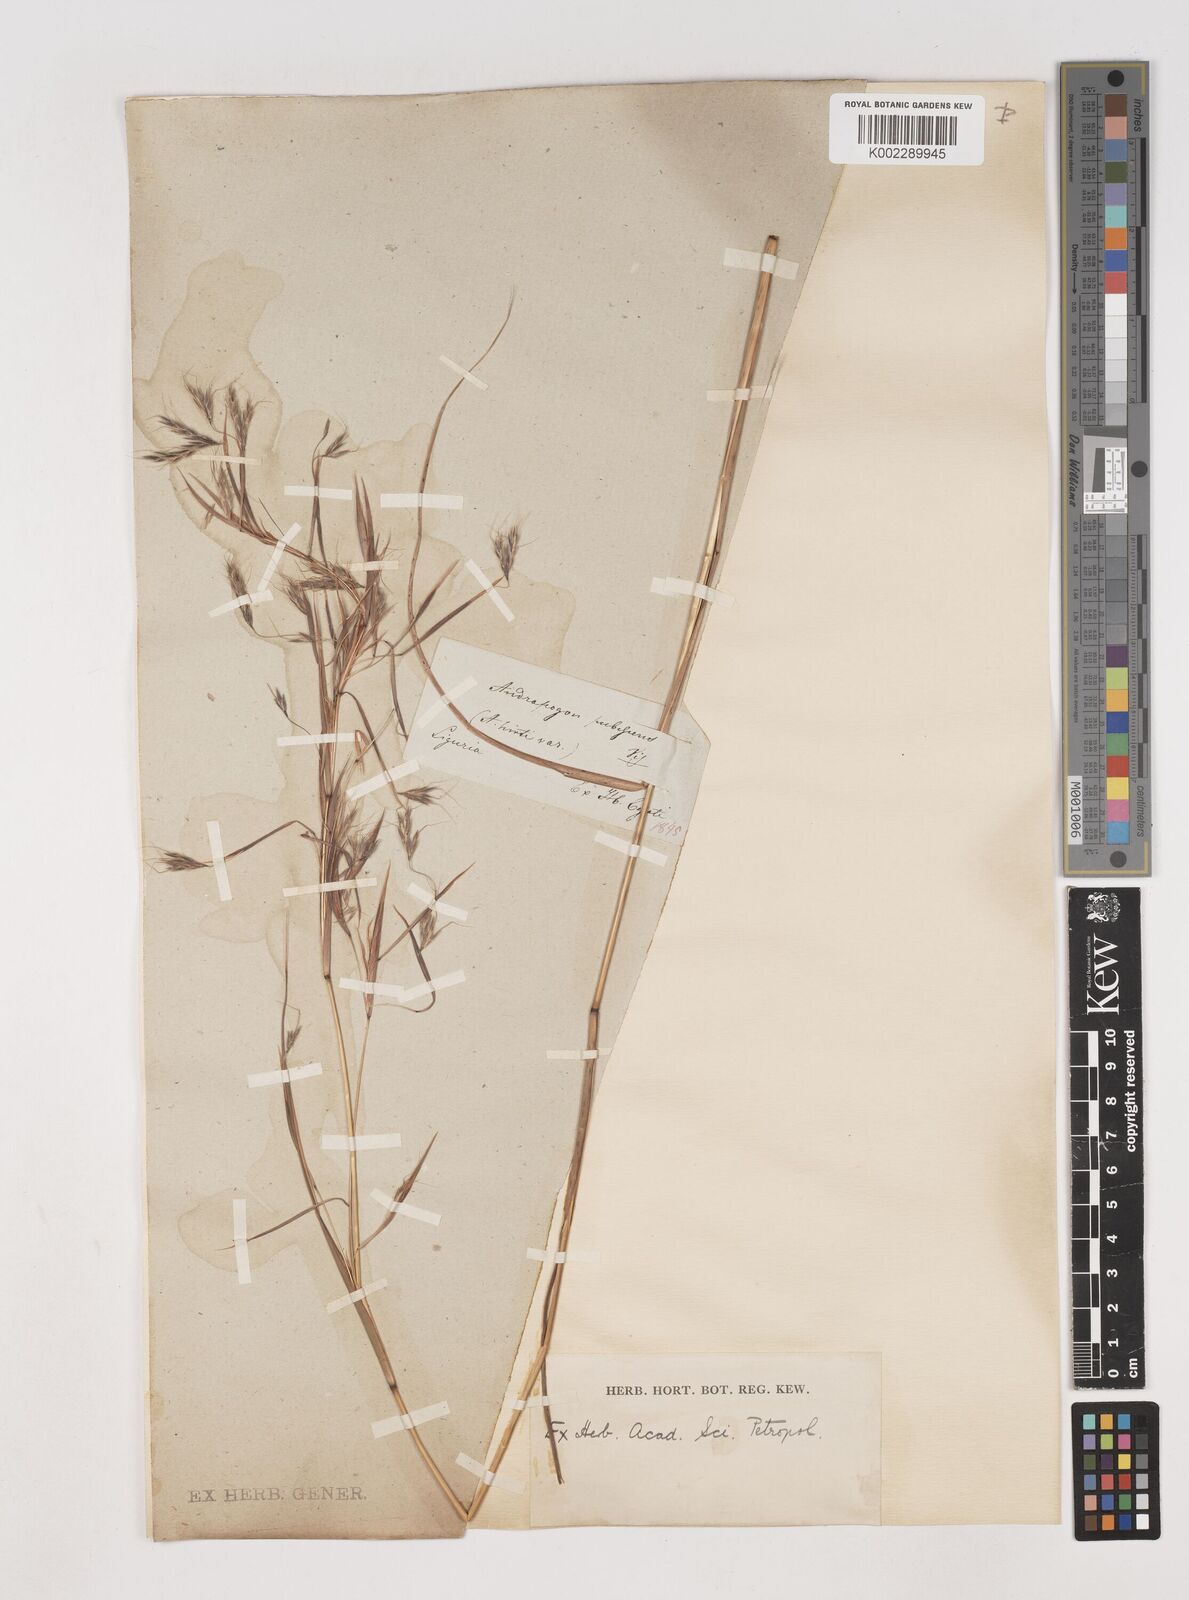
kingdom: Plantae
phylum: Tracheophyta
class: Liliopsida
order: Poales
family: Poaceae
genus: Hyparrhenia
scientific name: Hyparrhenia hirta
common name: Thatching grass
